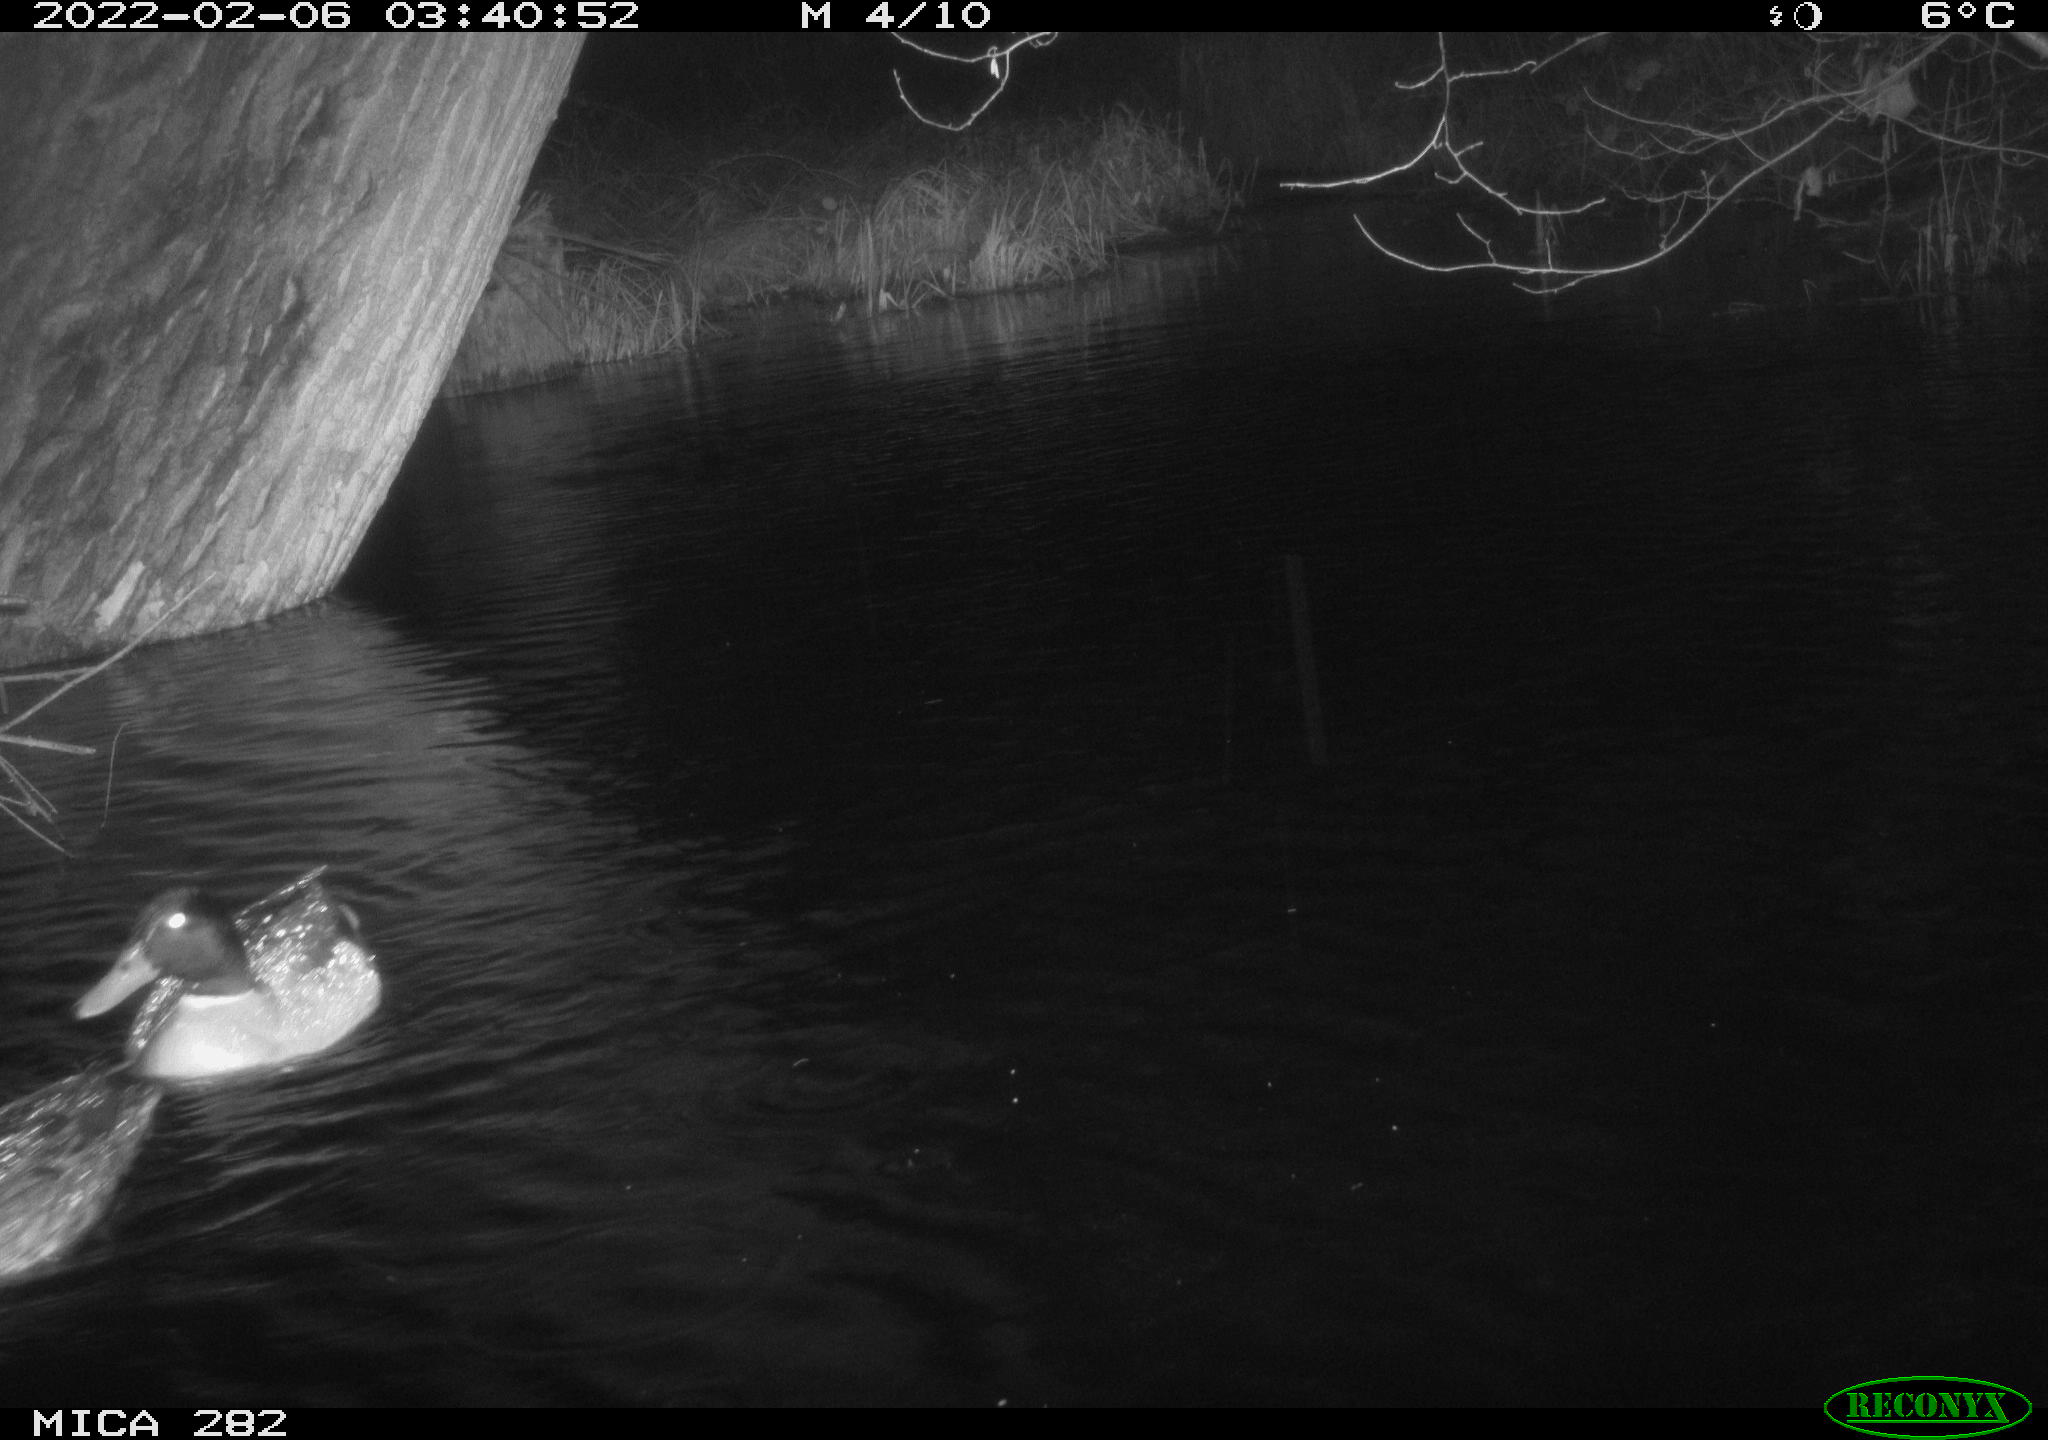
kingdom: Animalia
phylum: Chordata
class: Aves
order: Anseriformes
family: Anatidae
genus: Anas
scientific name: Anas platyrhynchos
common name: Mallard
